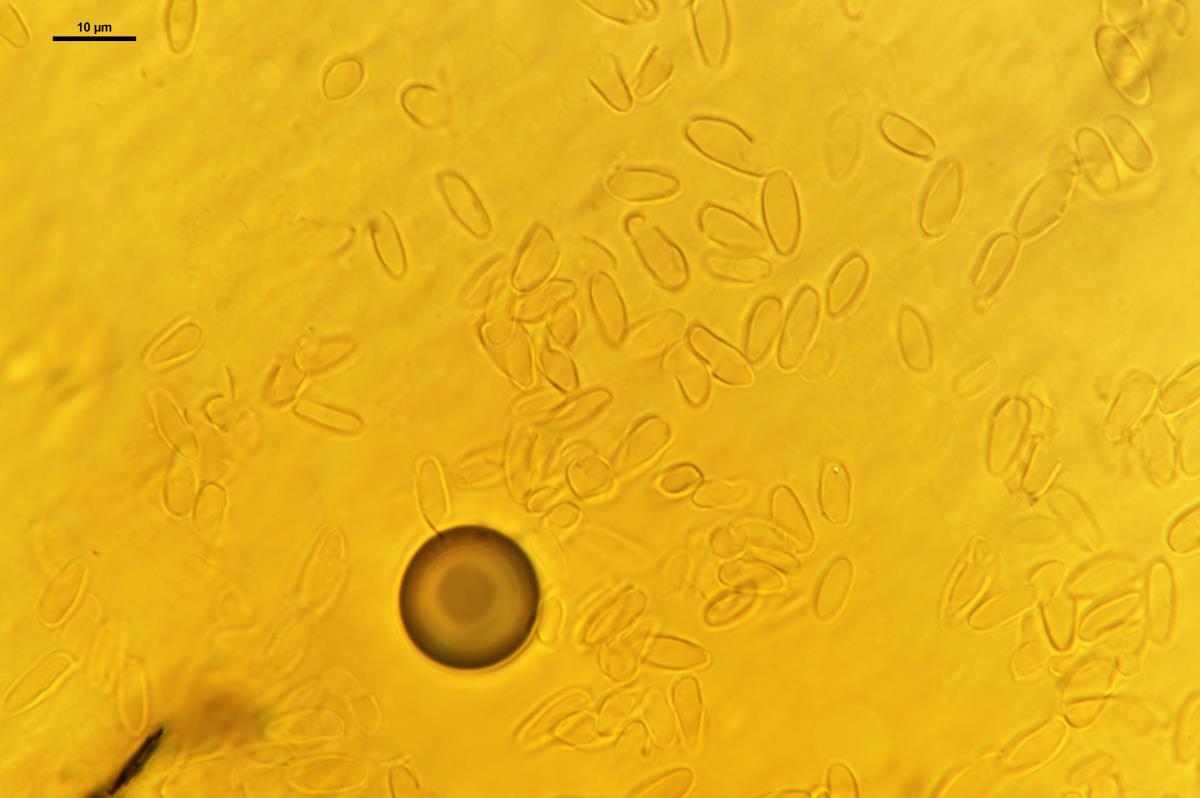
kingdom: Fungi
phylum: Basidiomycota
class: Agaricomycetes
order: Boletales
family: Boletaceae
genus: Chalciporus
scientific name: Chalciporus piperatus
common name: Peppery bolete
